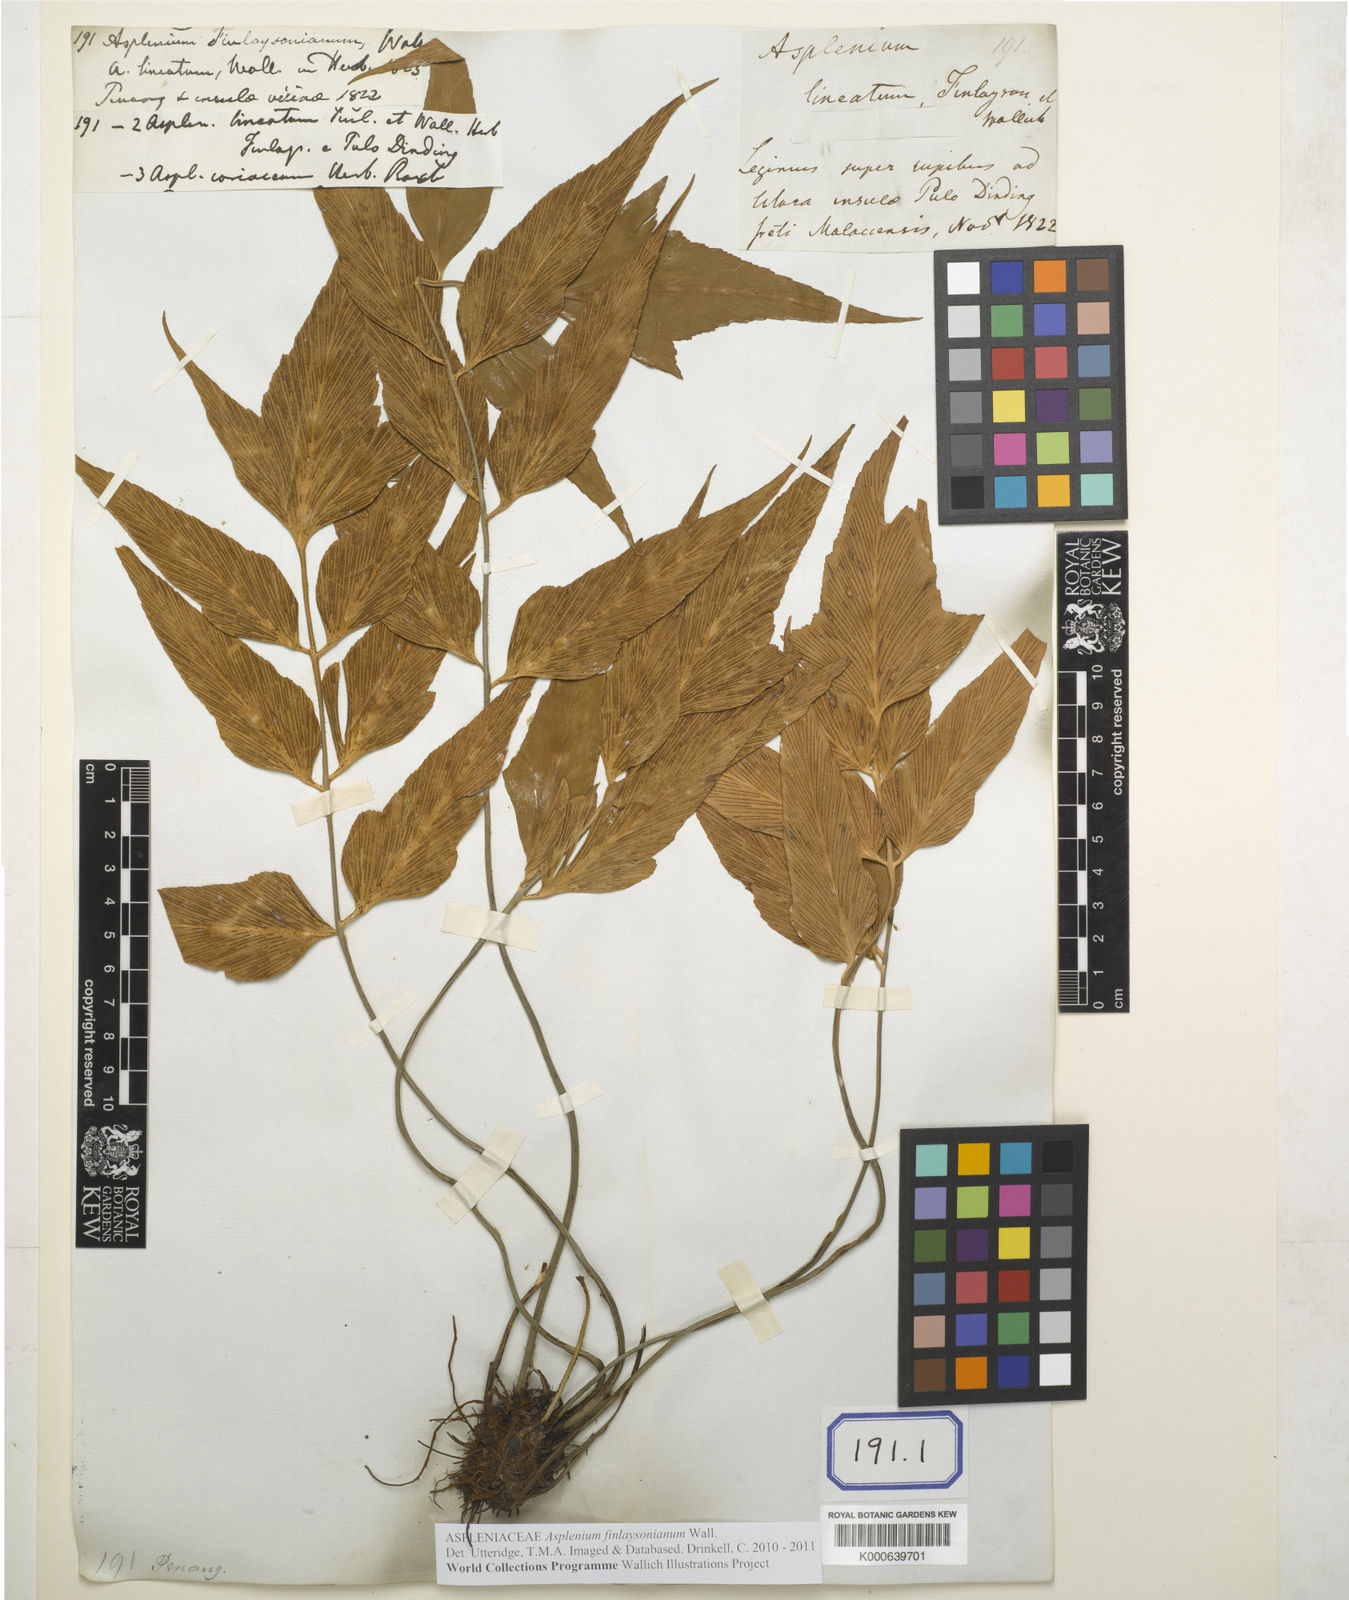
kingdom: Plantae
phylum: Tracheophyta
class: Polypodiopsida
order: Polypodiales
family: Aspleniaceae
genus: Asplenium
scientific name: Asplenium simile
